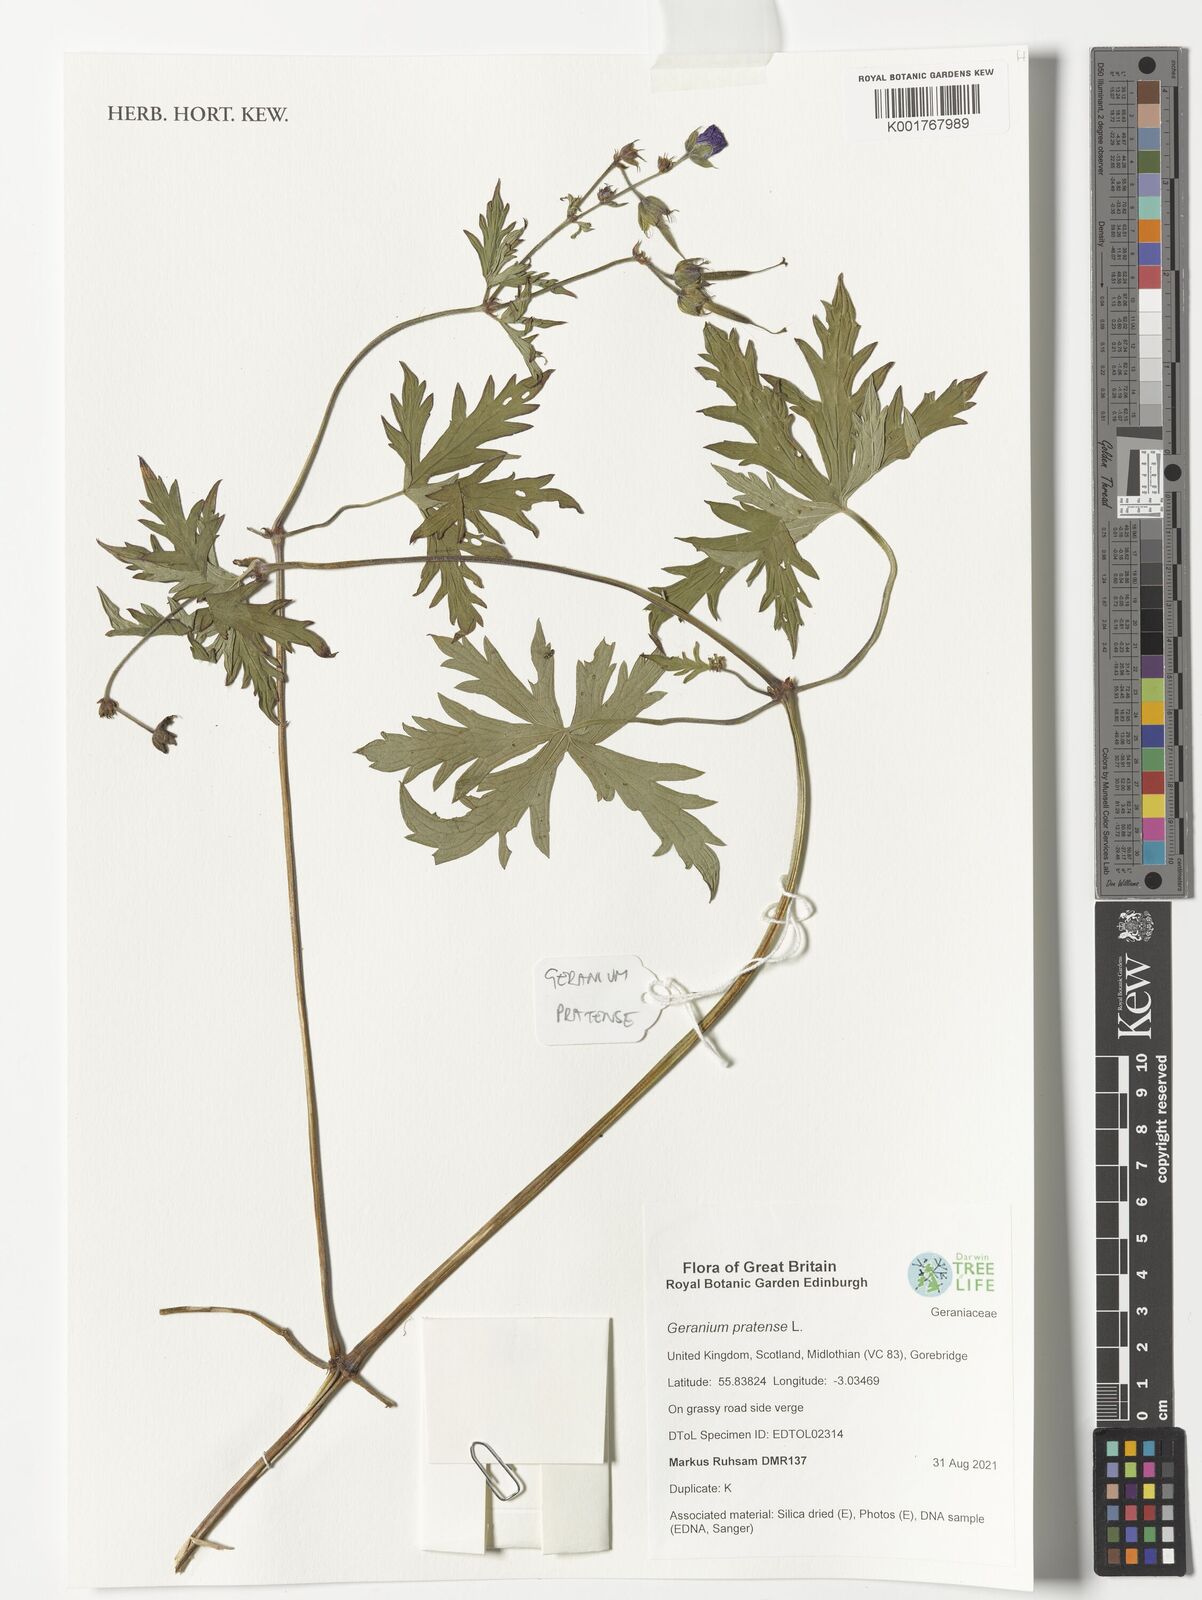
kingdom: Plantae
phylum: Tracheophyta
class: Magnoliopsida
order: Geraniales
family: Geraniaceae
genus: Geranium
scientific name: Geranium pratense
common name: Meadow crane's-bill
